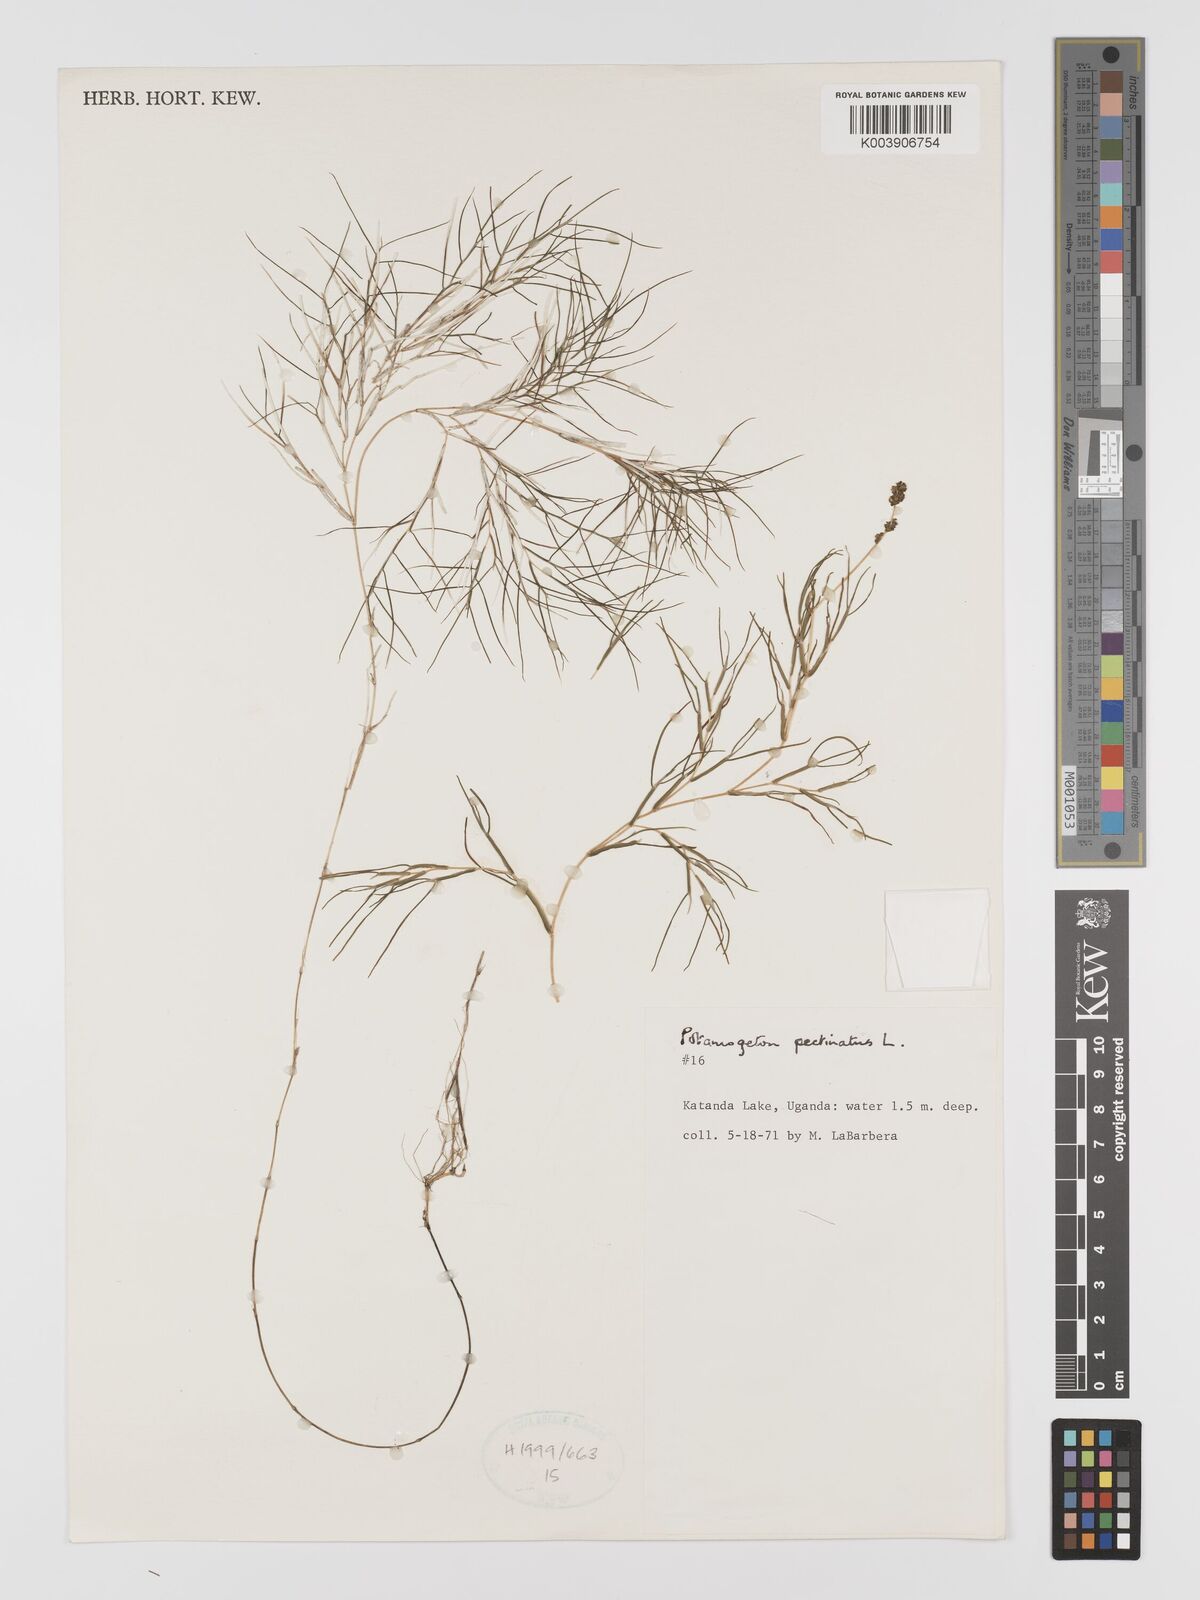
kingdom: Plantae
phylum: Tracheophyta
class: Liliopsida
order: Alismatales
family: Potamogetonaceae
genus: Stuckenia
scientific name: Stuckenia pectinata
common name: Sago pondweed
